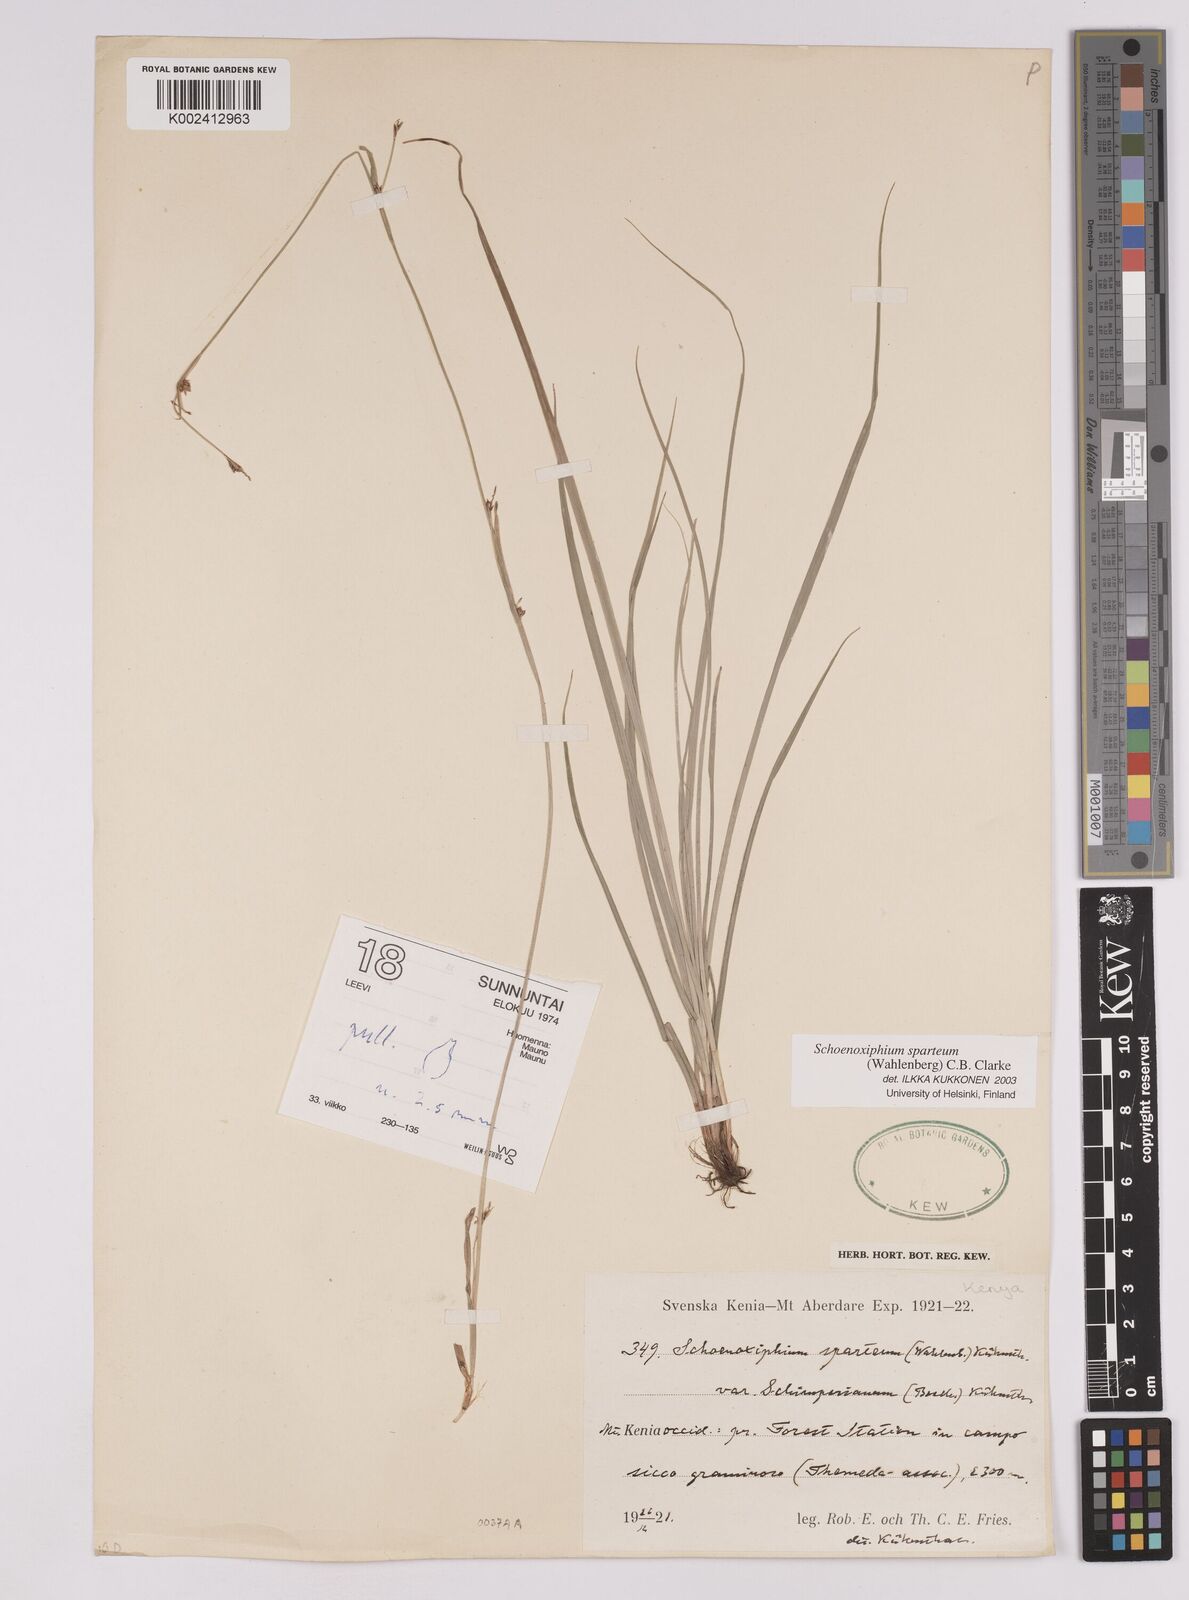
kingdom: Plantae
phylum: Tracheophyta
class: Liliopsida
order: Poales
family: Cyperaceae
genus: Carex
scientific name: Carex schimperiana
